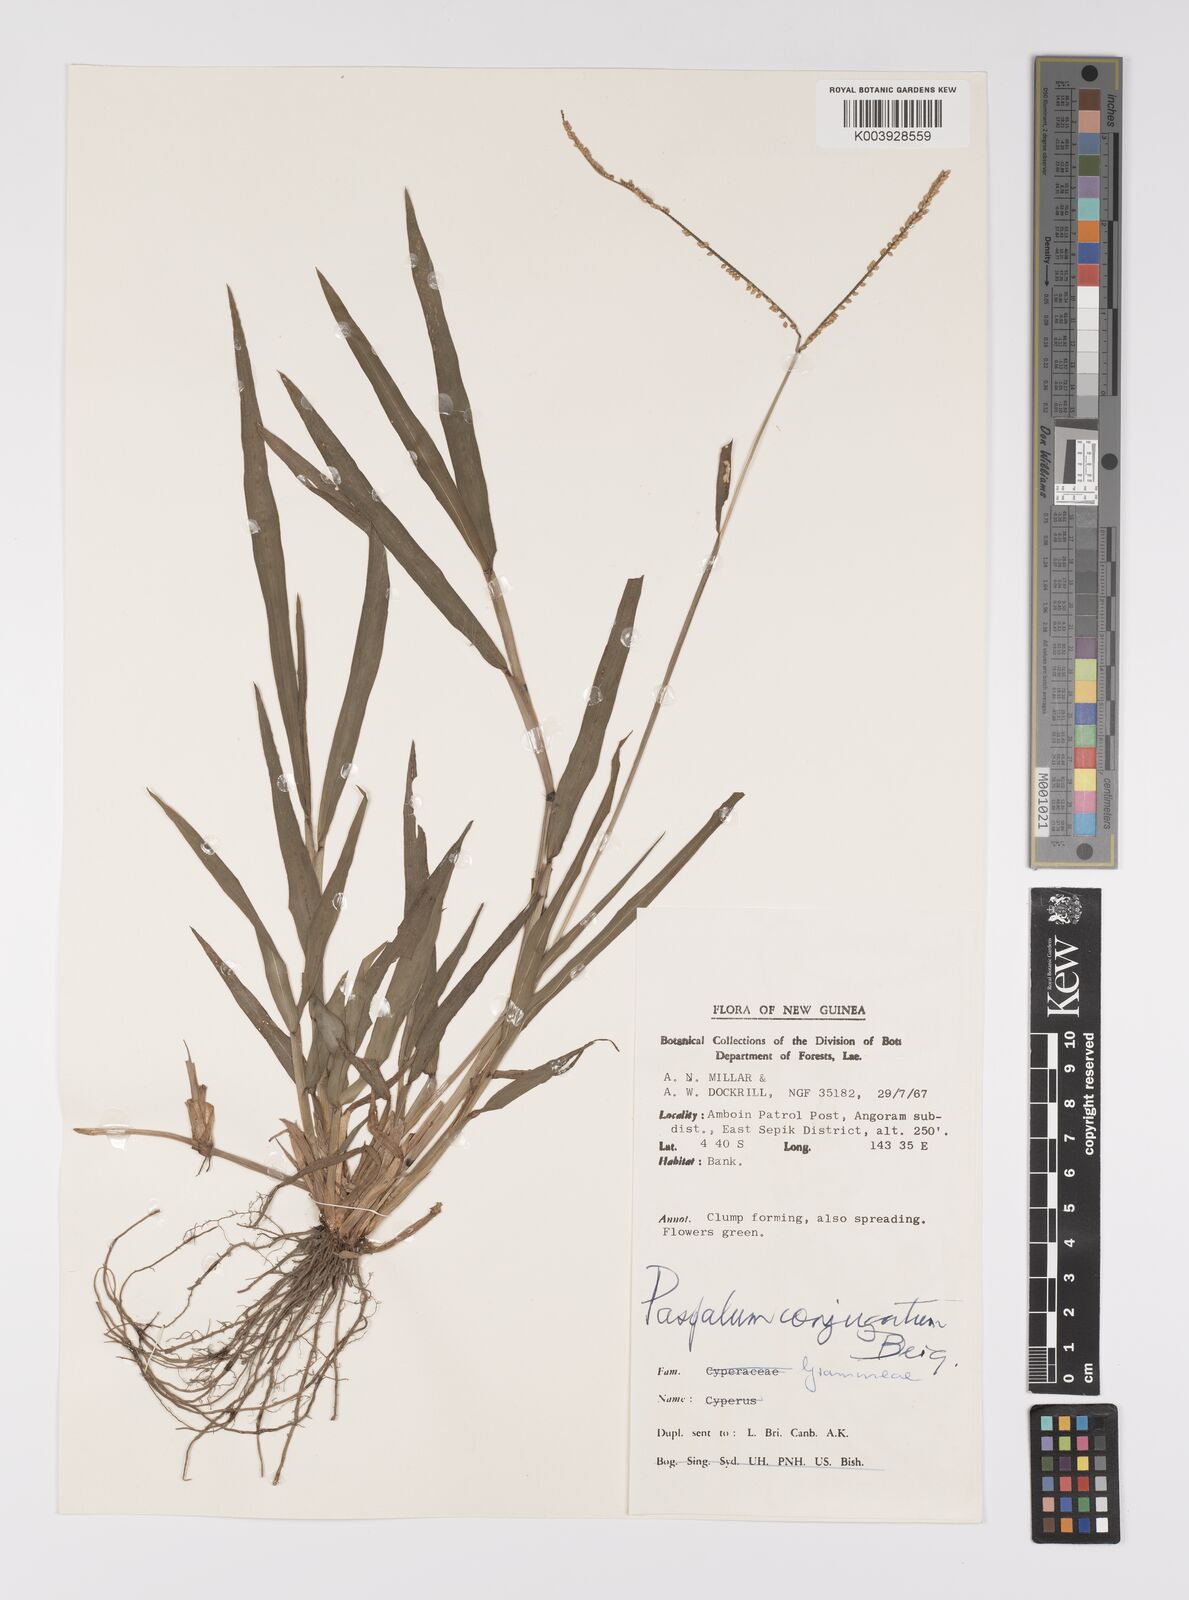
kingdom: Plantae
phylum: Tracheophyta
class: Liliopsida
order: Poales
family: Poaceae
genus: Paspalum
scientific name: Paspalum conjugatum
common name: Hilograss
